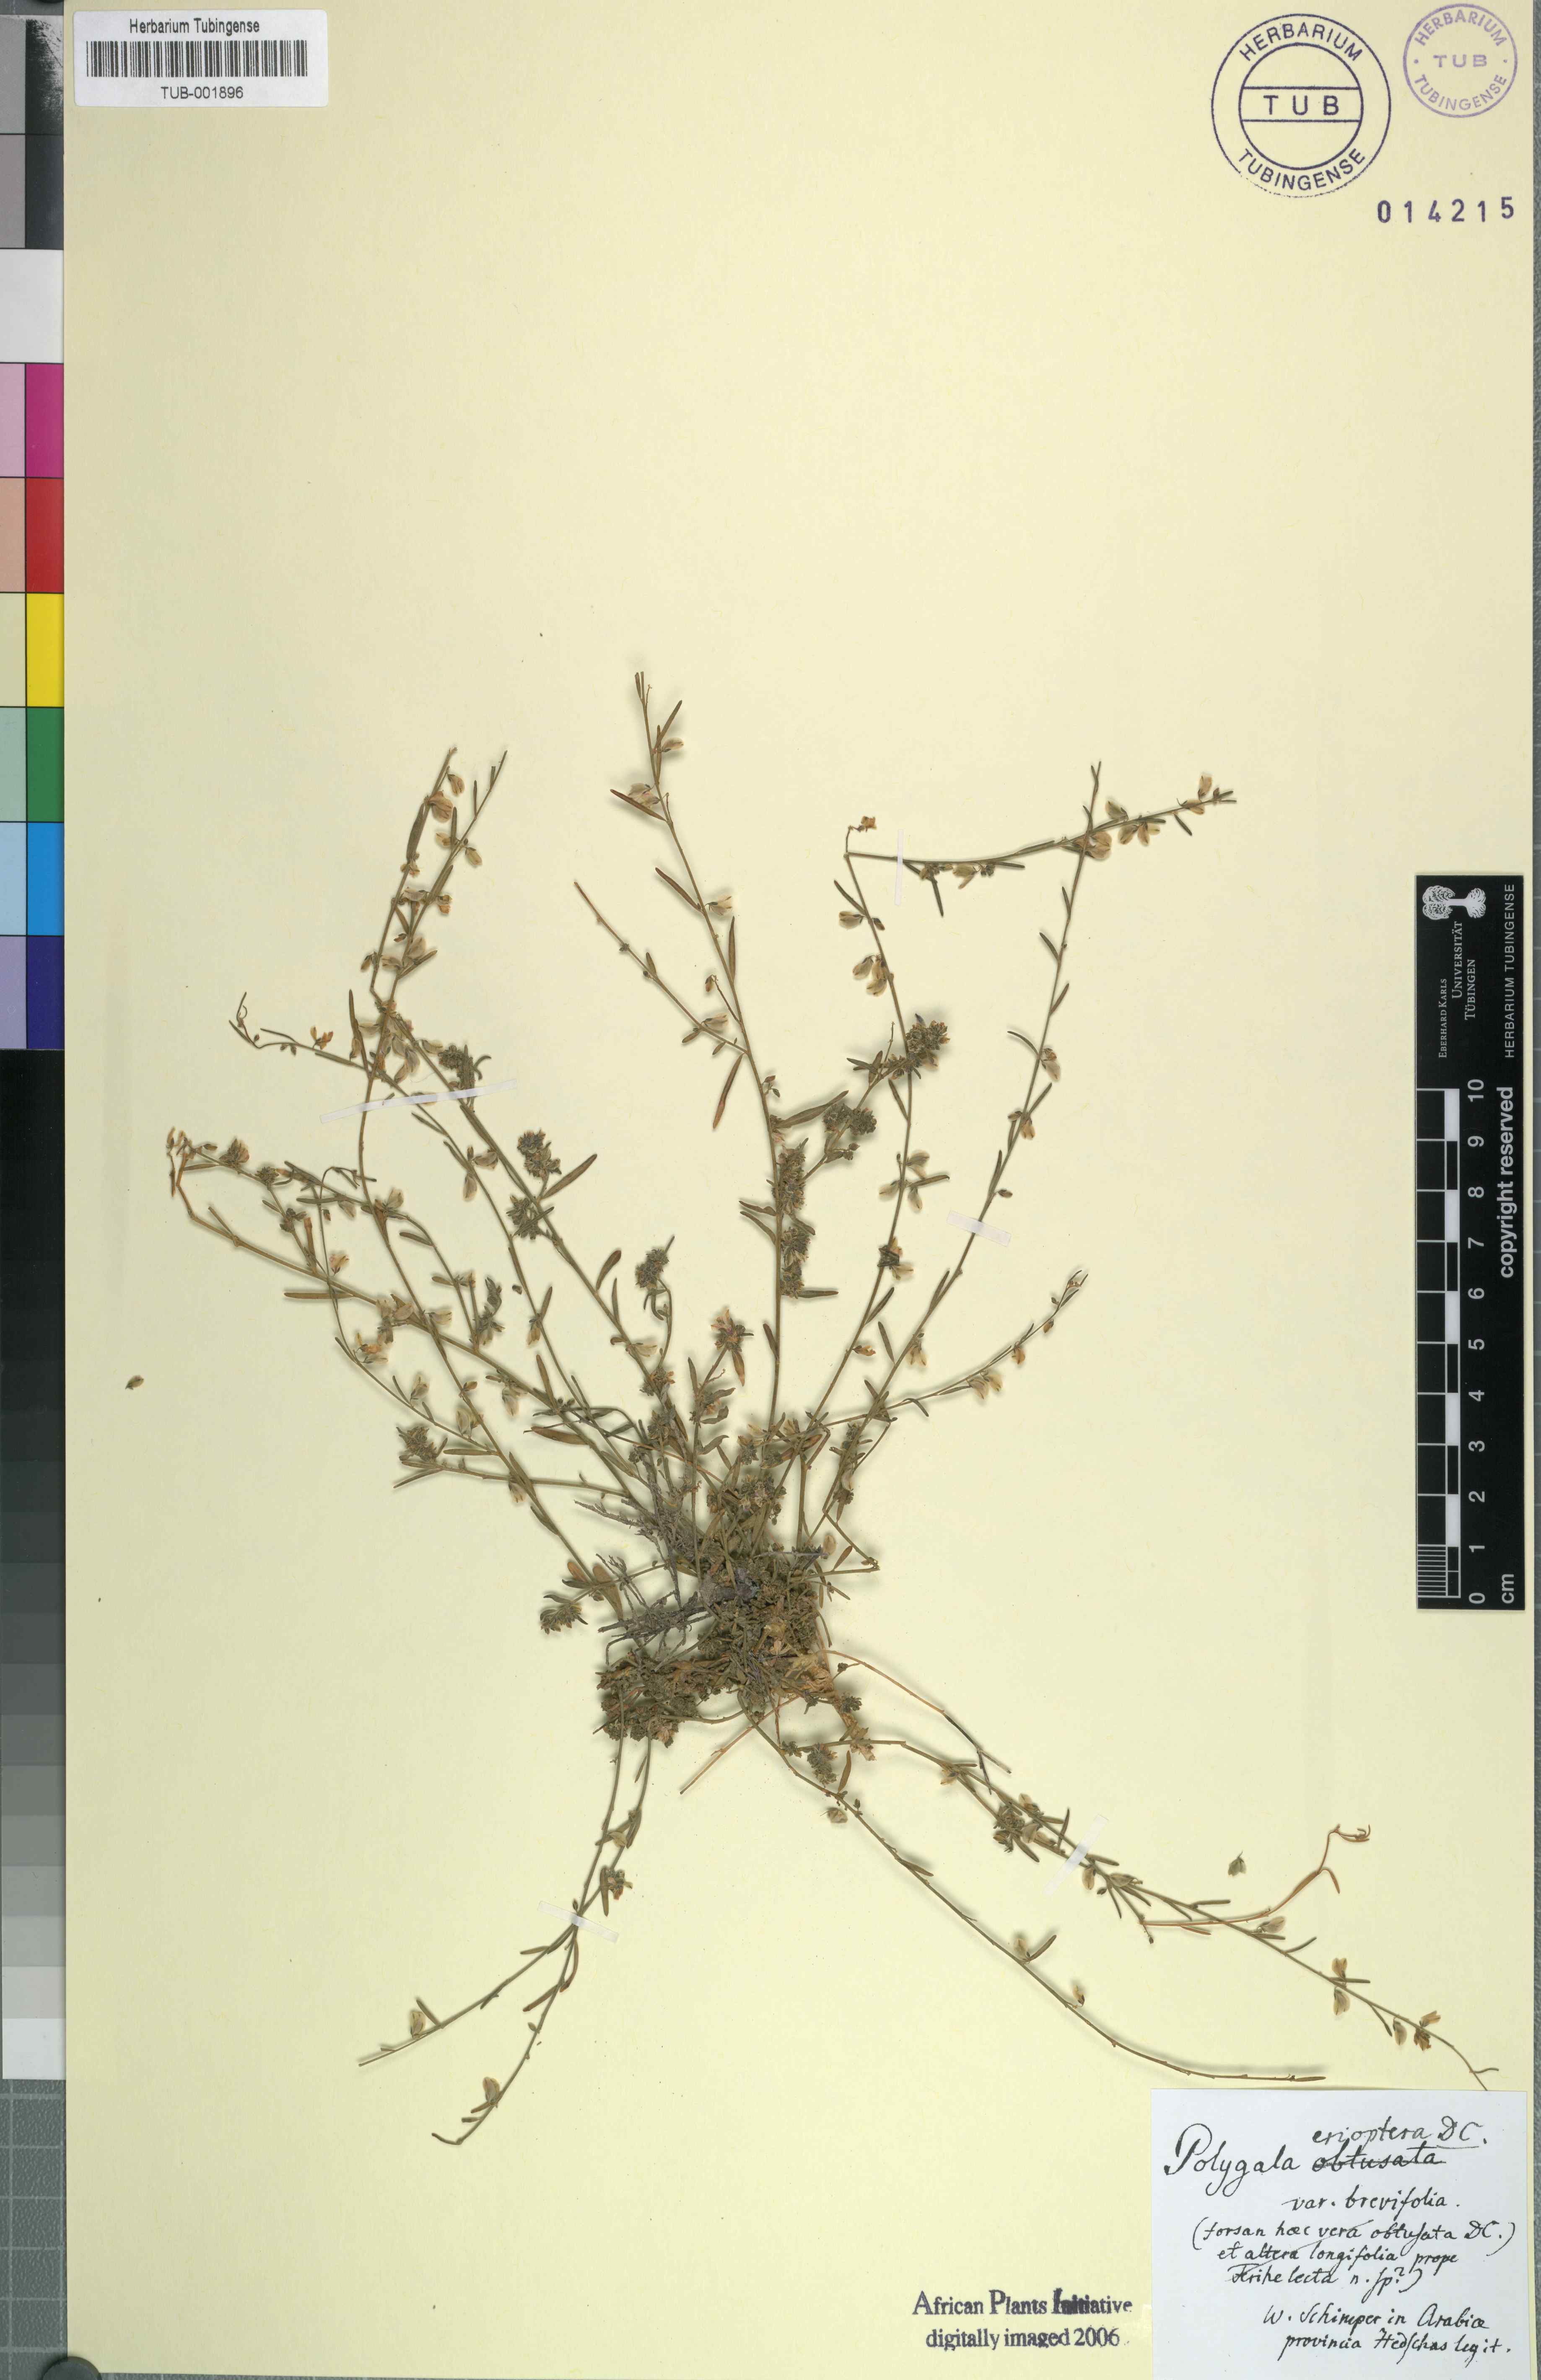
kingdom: Plantae
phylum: Tracheophyta
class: Magnoliopsida
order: Fabales
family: Polygalaceae
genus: Polygala
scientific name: Polygala erioptera
